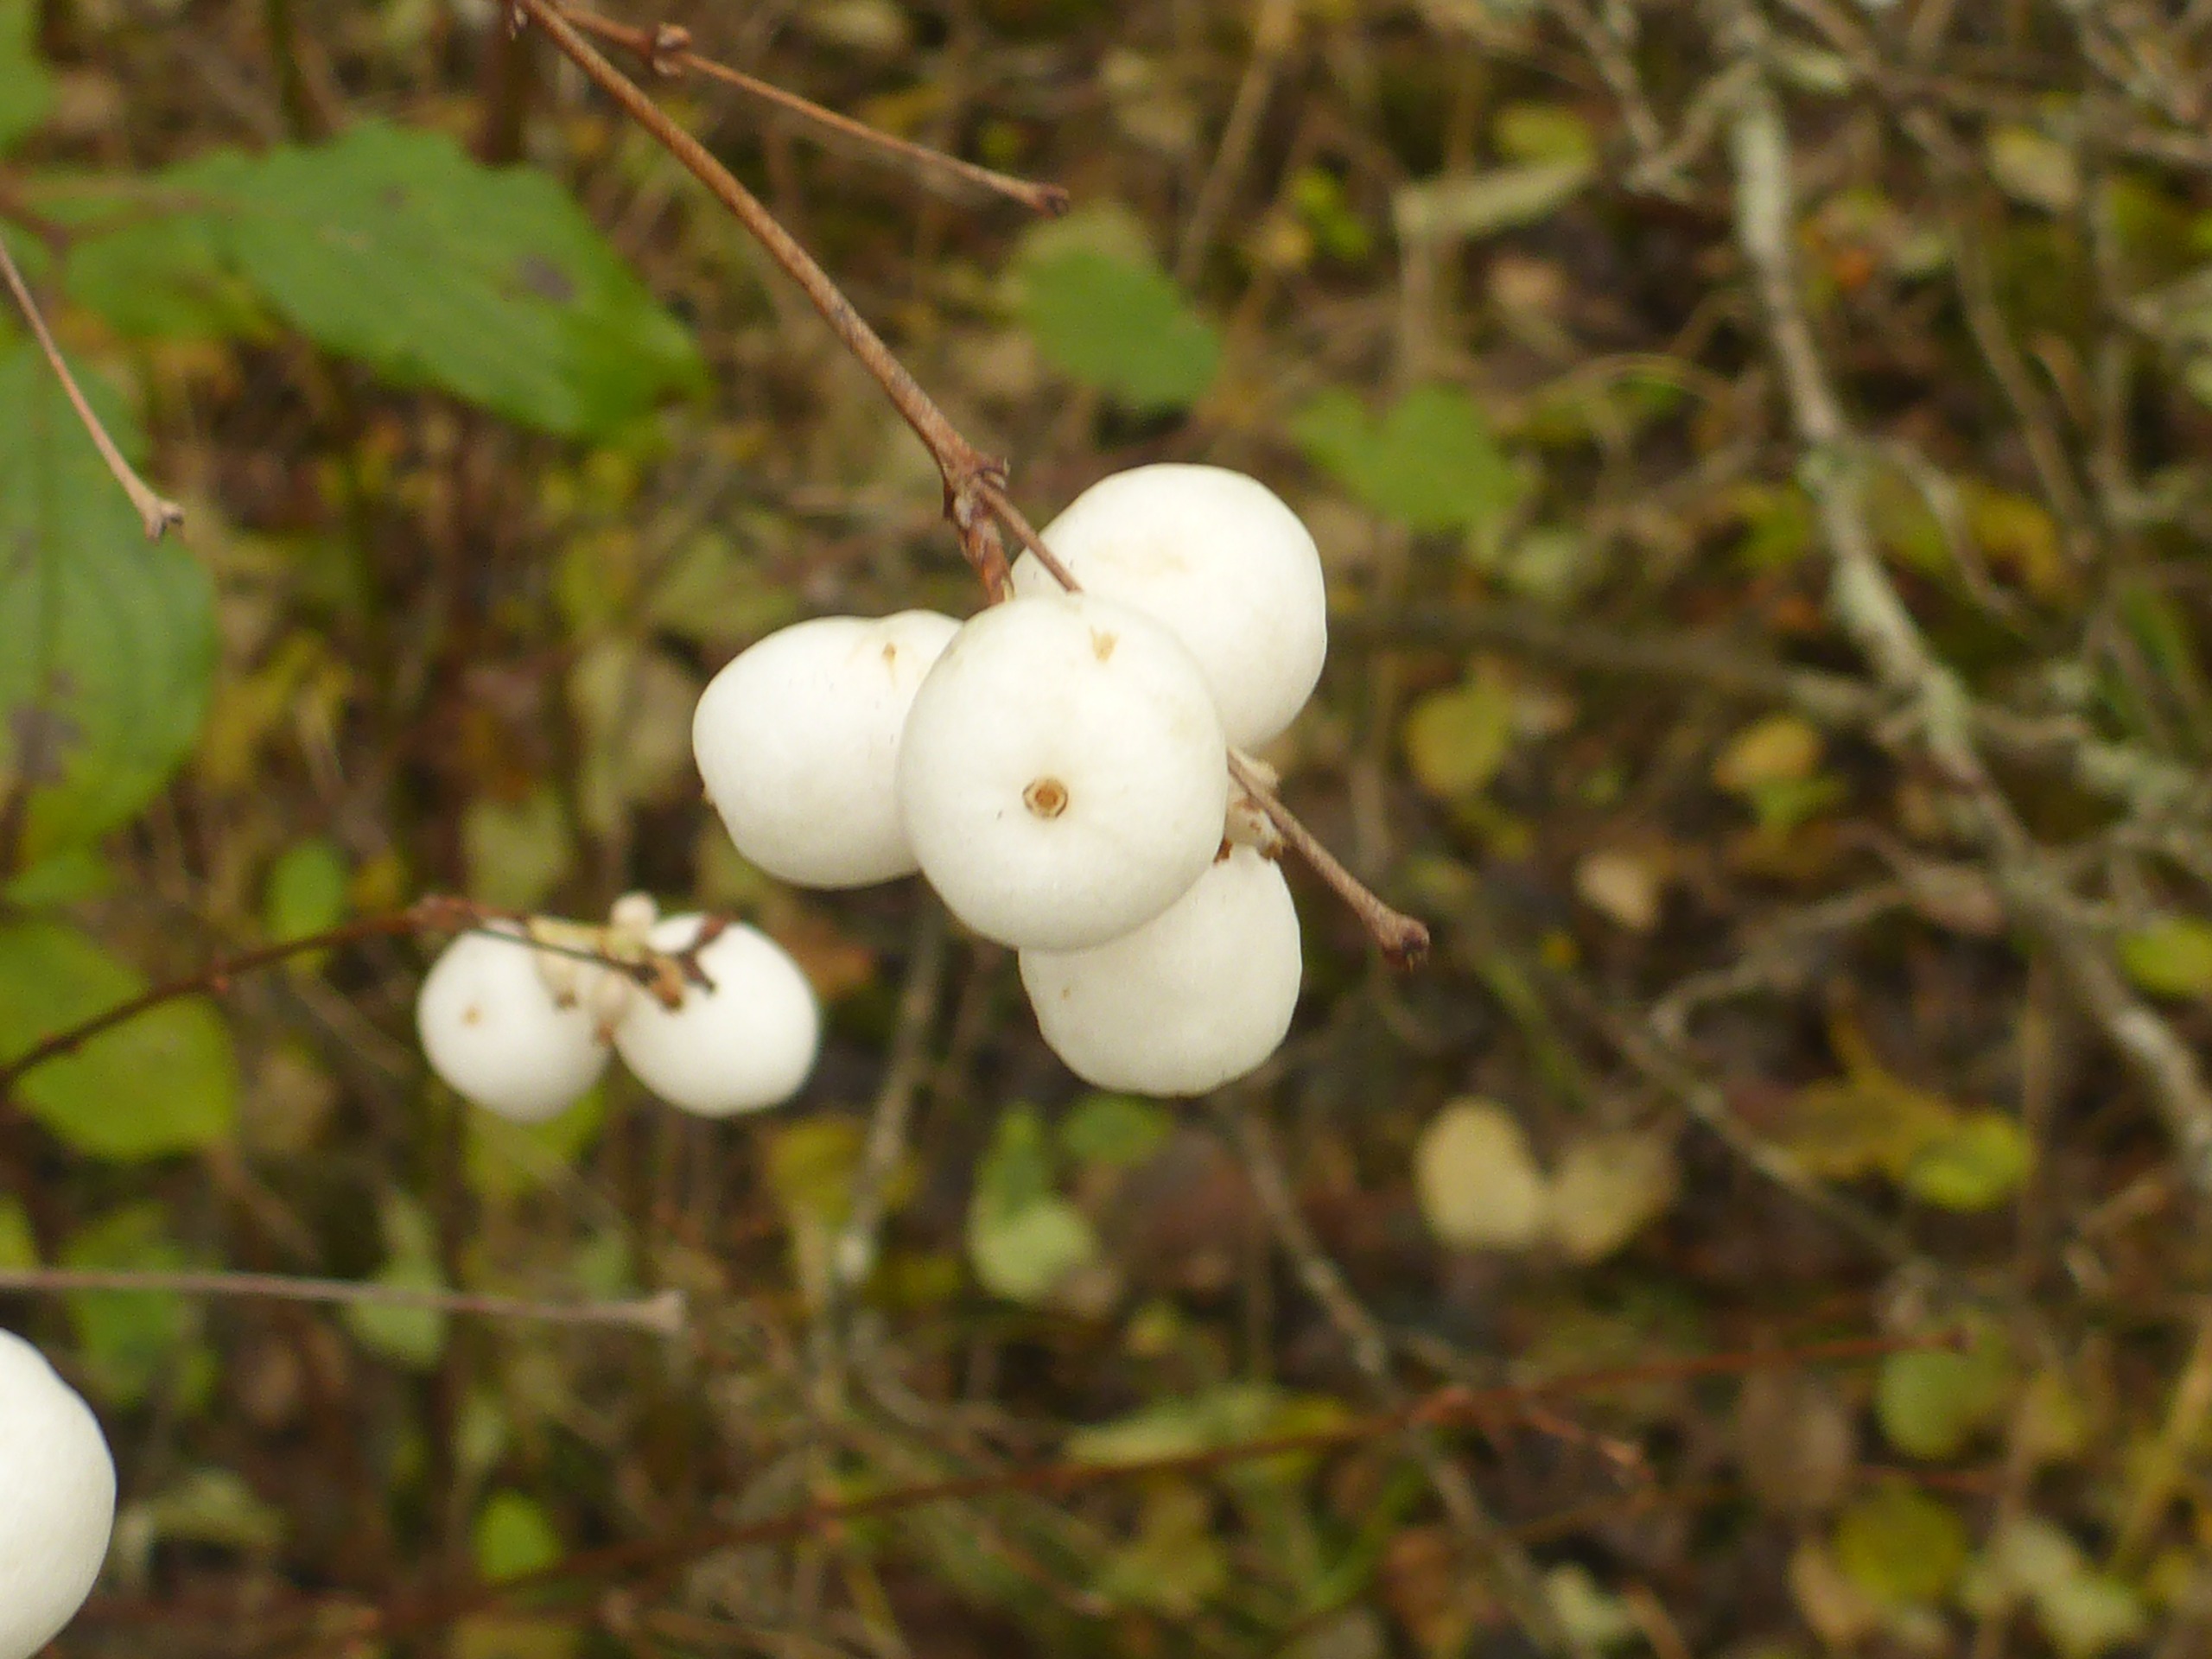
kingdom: Plantae
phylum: Tracheophyta
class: Magnoliopsida
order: Dipsacales
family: Caprifoliaceae
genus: Symphoricarpos
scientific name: Symphoricarpos albus
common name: Almindelig snebær
